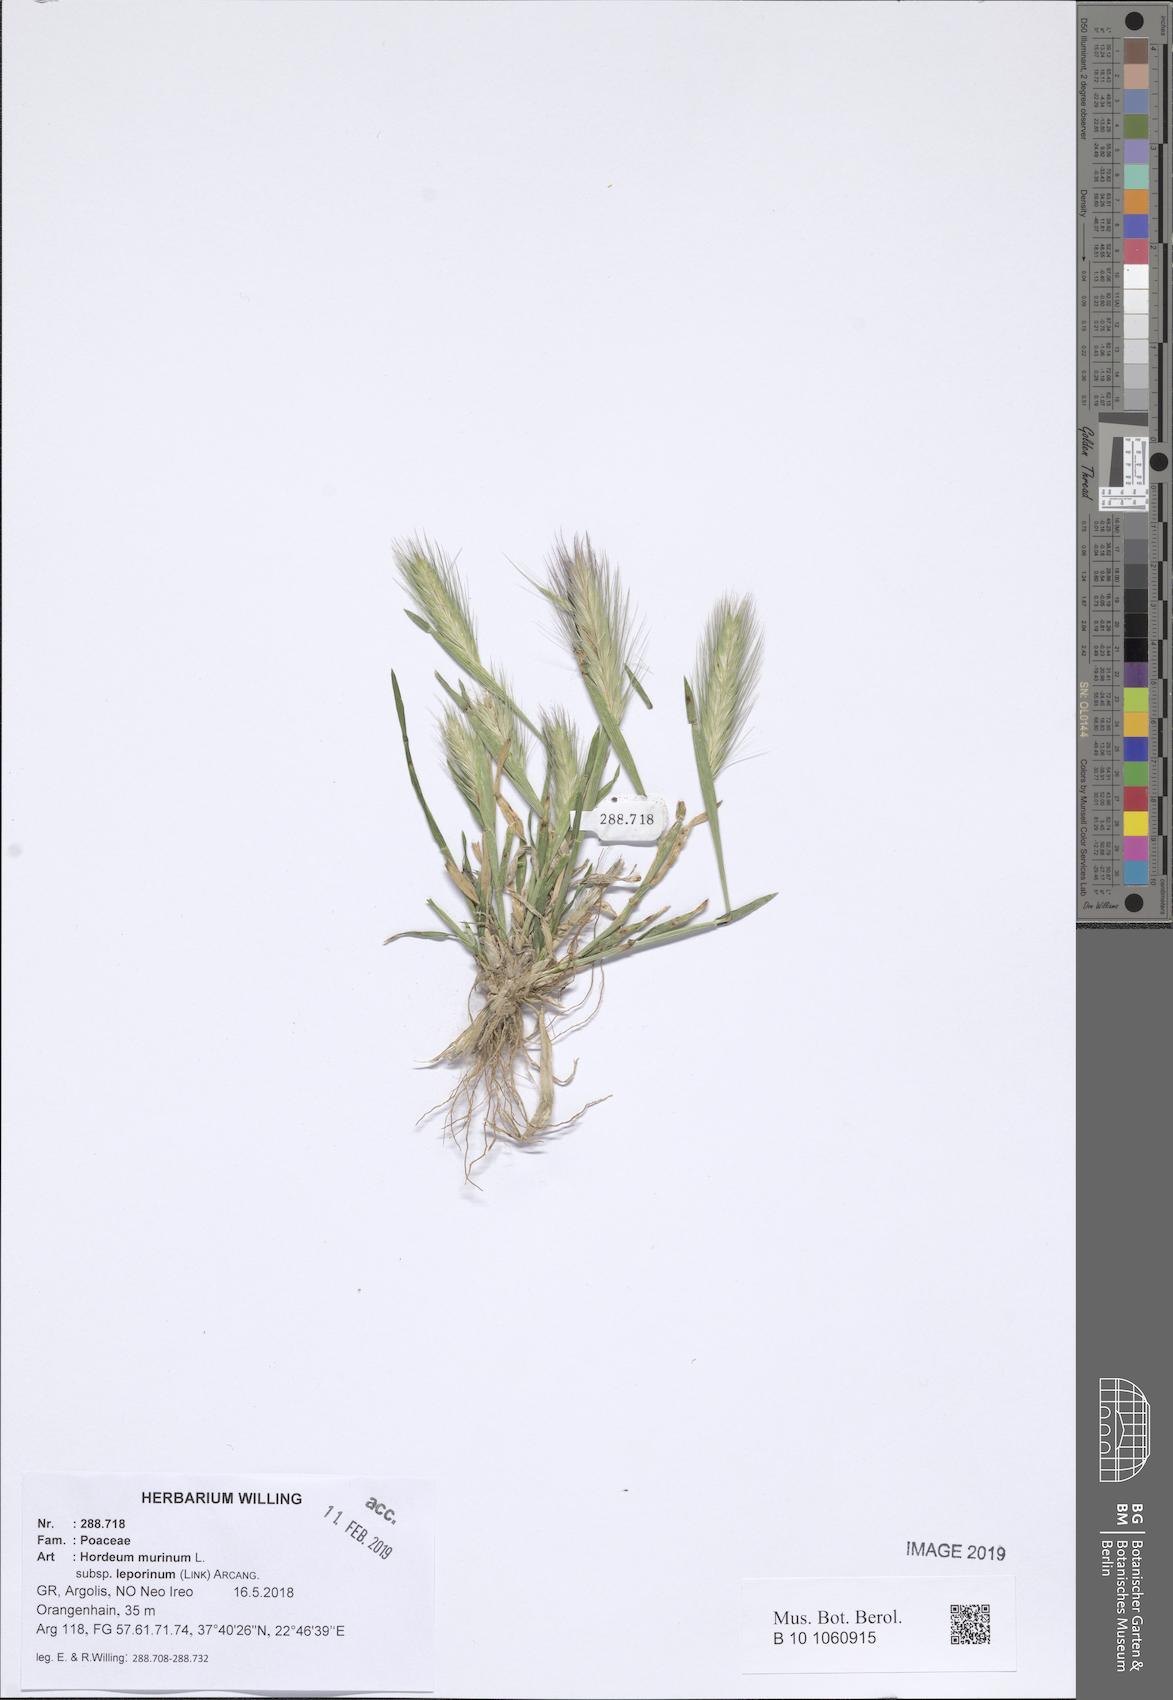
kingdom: Plantae
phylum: Tracheophyta
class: Liliopsida
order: Poales
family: Poaceae
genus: Hordeum
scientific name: Hordeum murinum
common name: Wall barley
